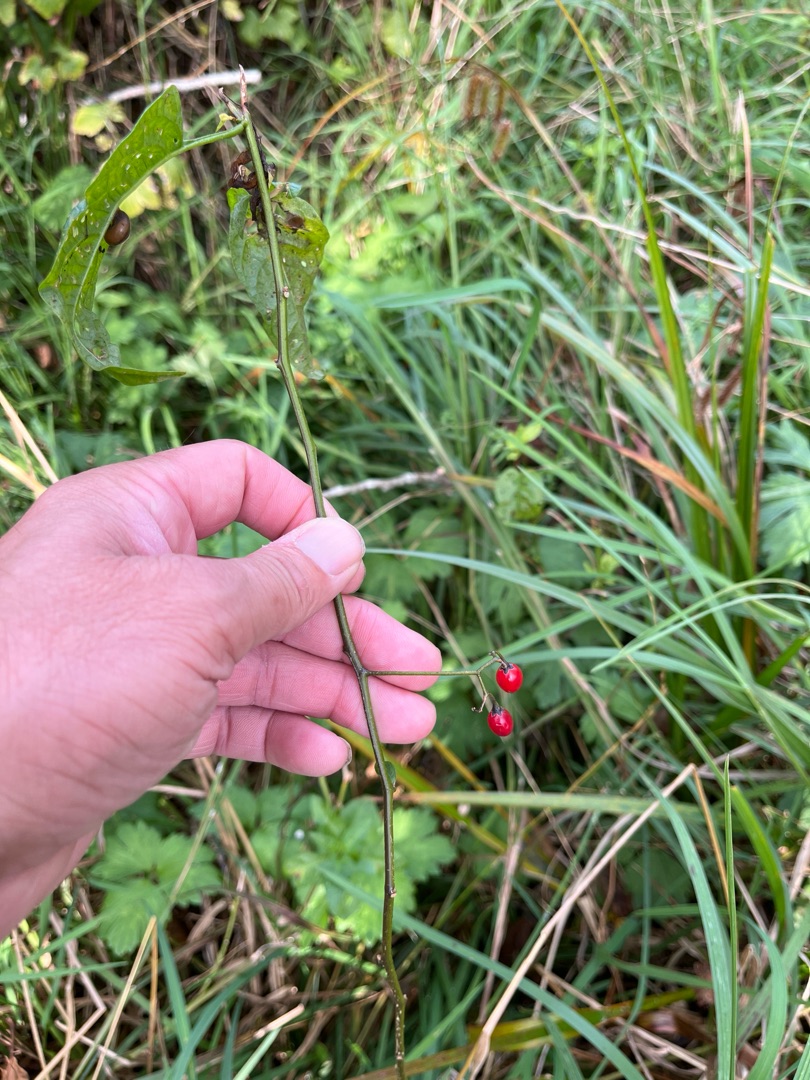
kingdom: Plantae
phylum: Tracheophyta
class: Magnoliopsida
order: Solanales
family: Solanaceae
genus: Solanum
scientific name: Solanum dulcamara
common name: Bittersød natskygge
